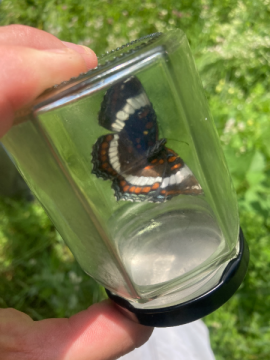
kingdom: Animalia
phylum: Arthropoda
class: Insecta
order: Lepidoptera
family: Nymphalidae
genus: Limenitis
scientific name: Limenitis arthemis
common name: Red-spotted Admiral
